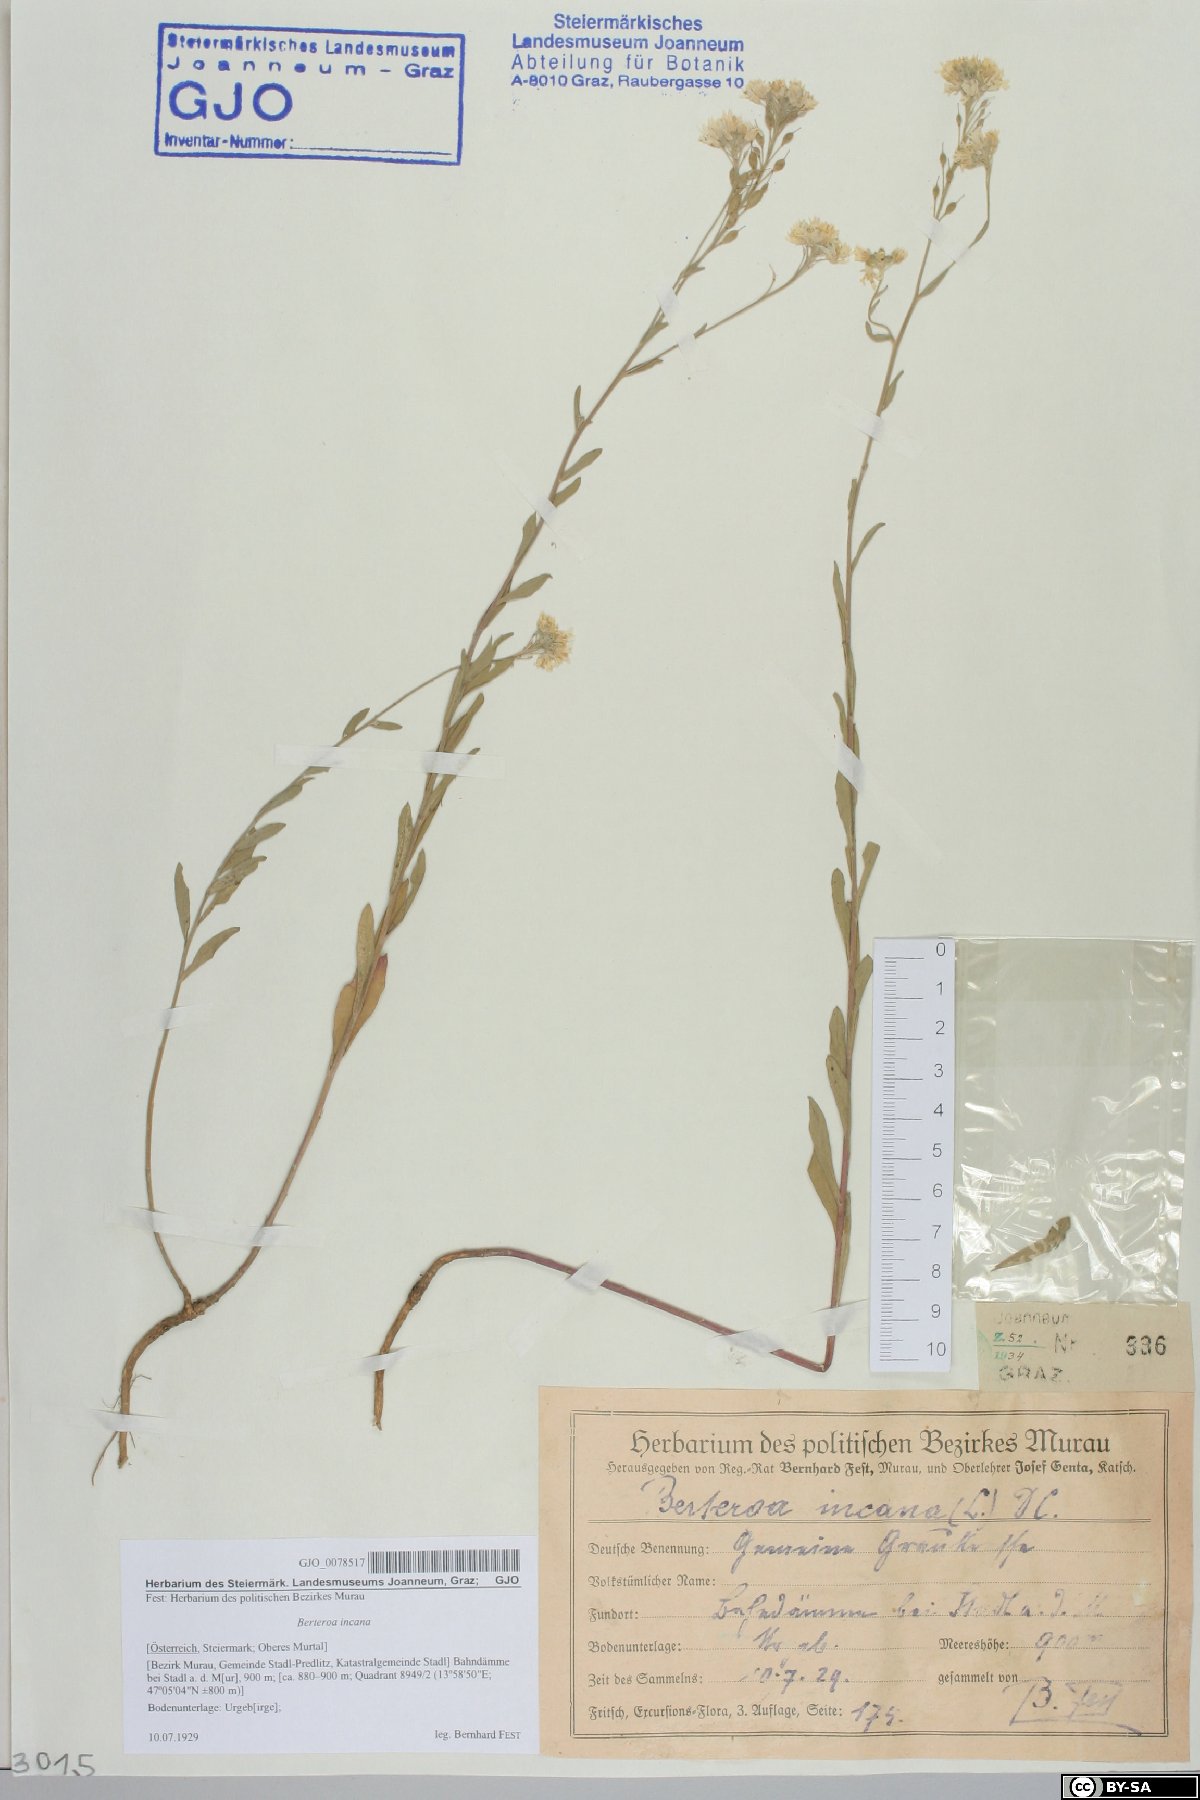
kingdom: Plantae
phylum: Tracheophyta
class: Magnoliopsida
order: Fabales
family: Fabaceae
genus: Astragalus
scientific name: Astragalus norvegicus
